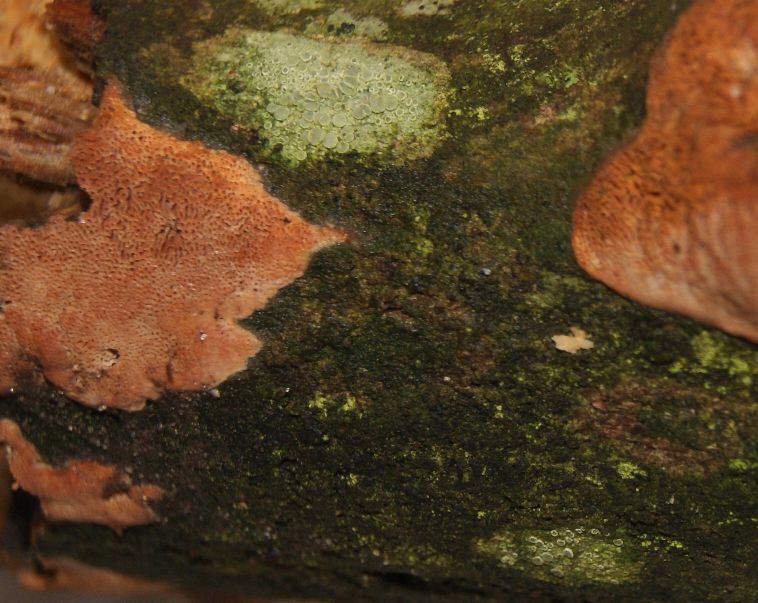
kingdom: Fungi
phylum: Basidiomycota
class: Agaricomycetes
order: Polyporales
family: Irpicaceae
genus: Ceriporia
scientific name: Ceriporia purpurea
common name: purpur-voksporesvamp
